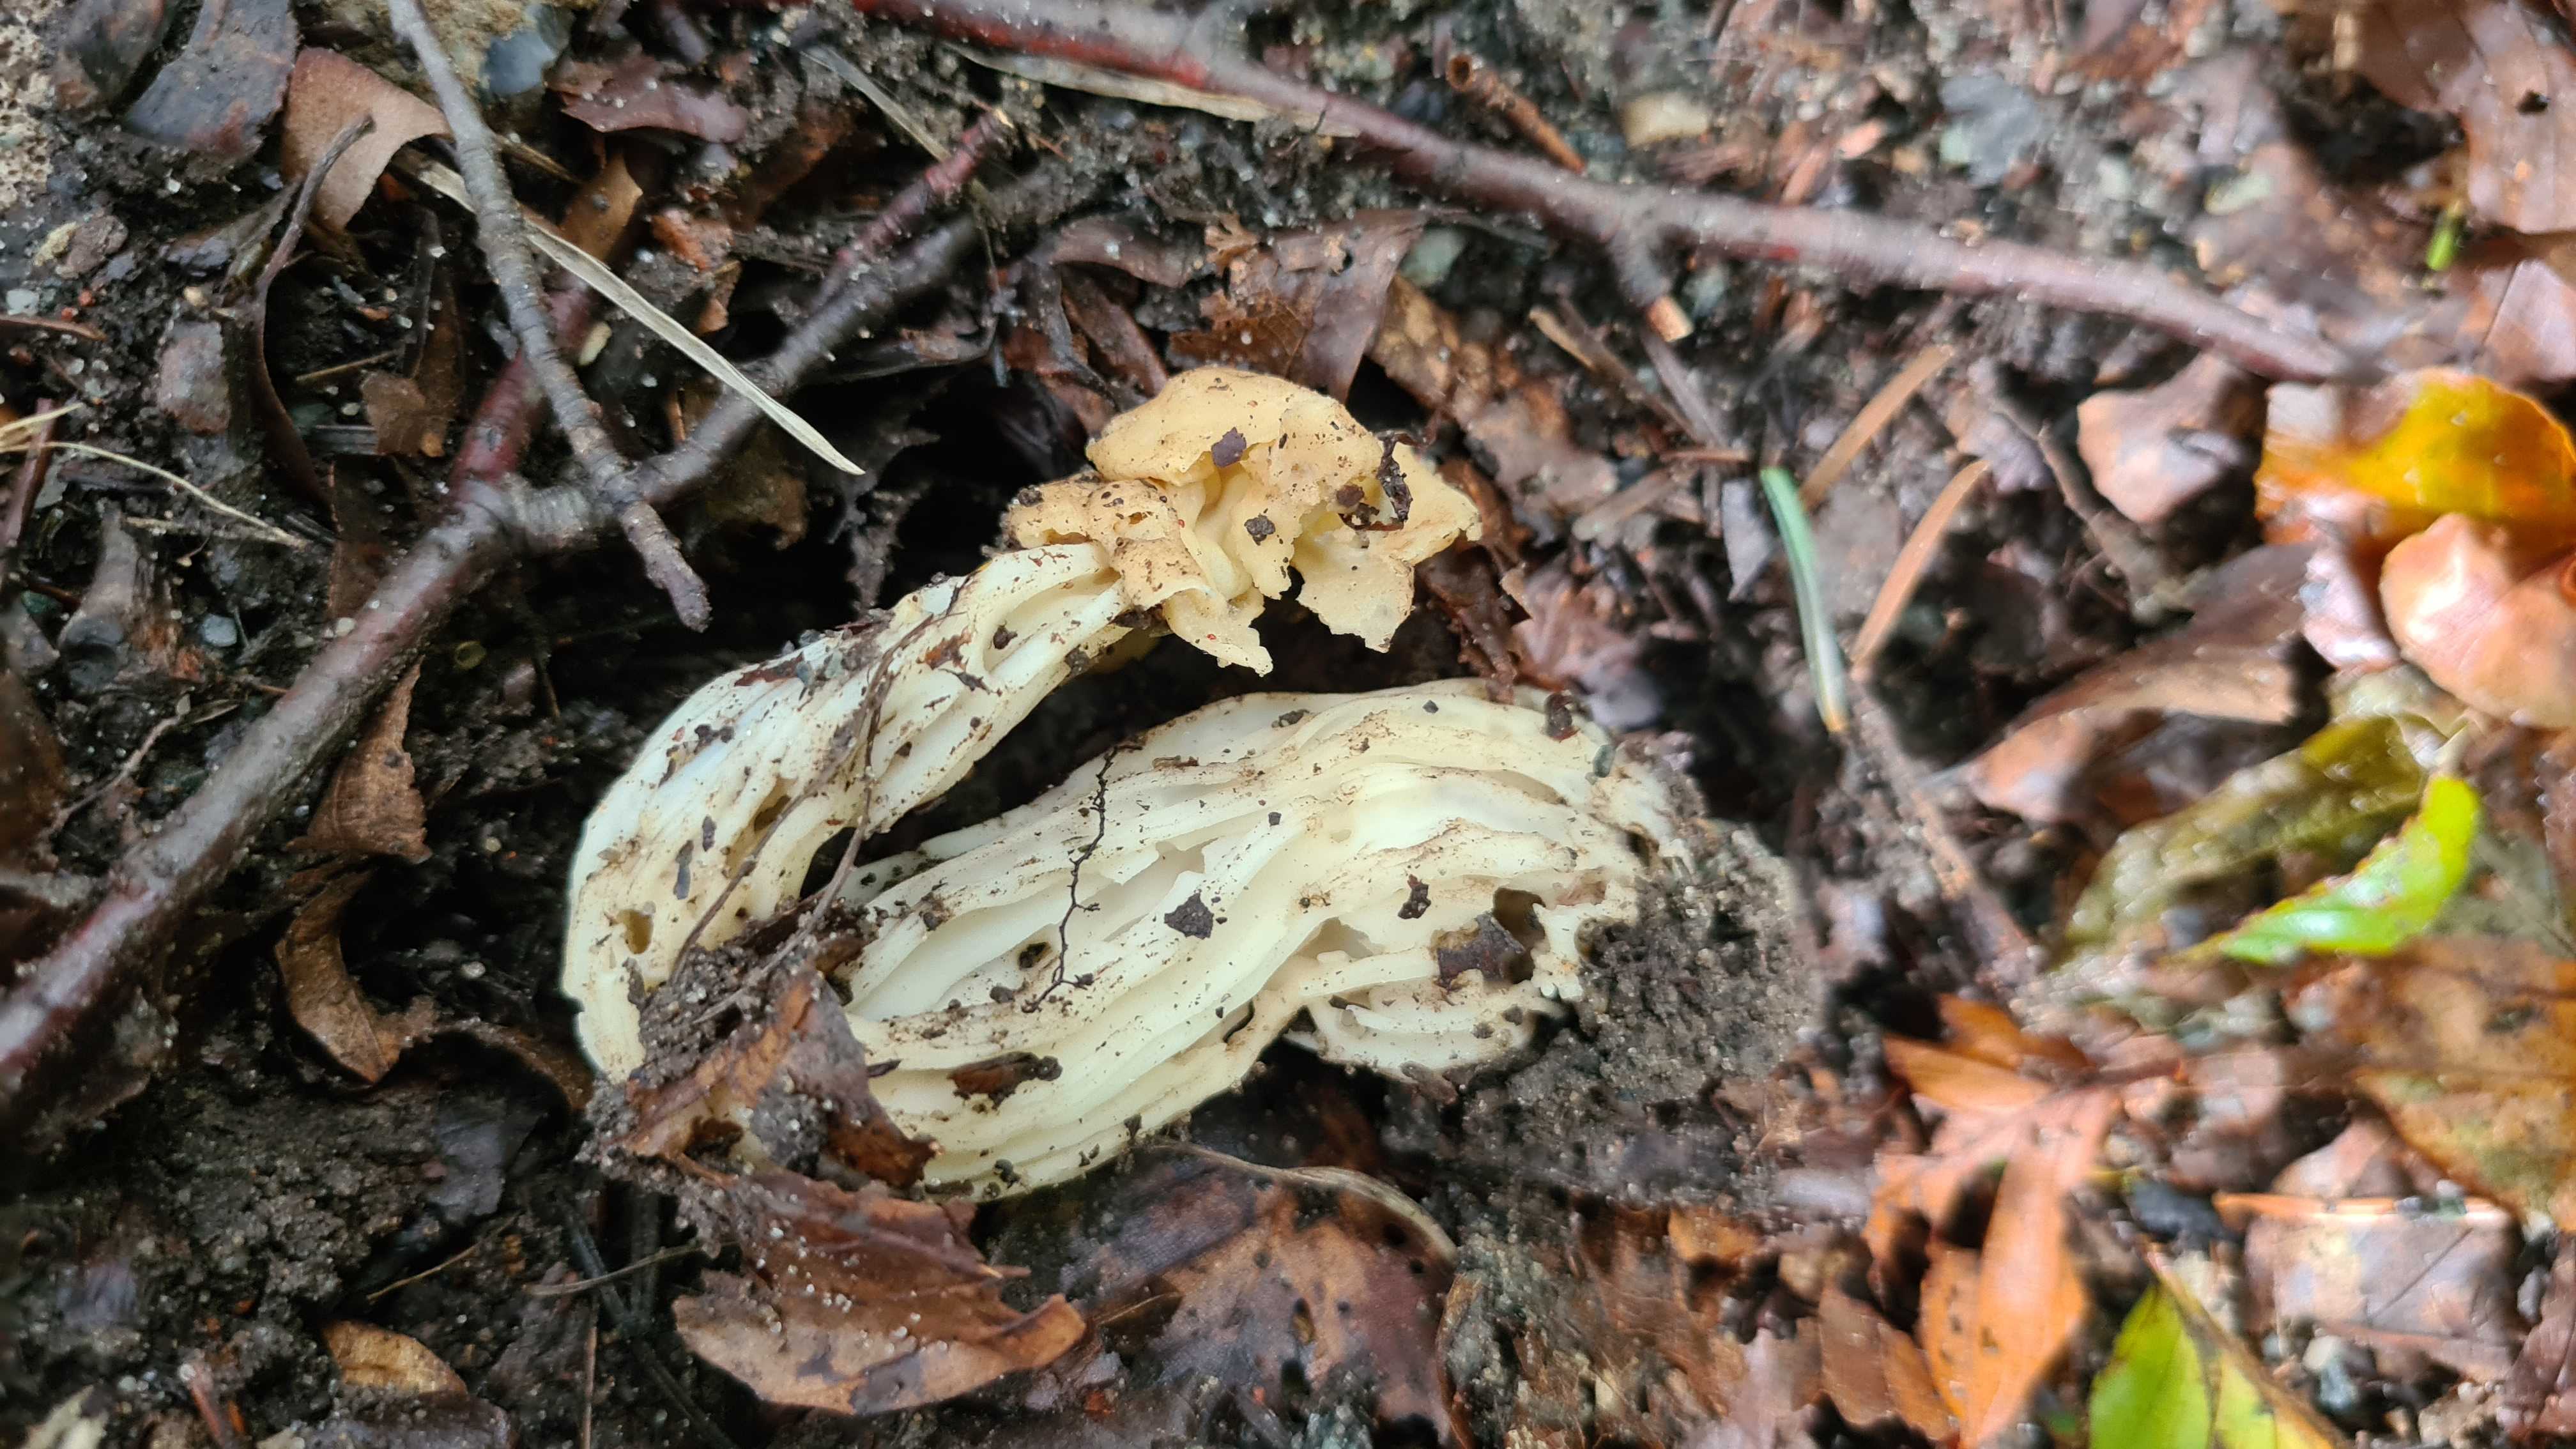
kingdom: Fungi
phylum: Ascomycota
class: Pezizomycetes
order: Pezizales
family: Helvellaceae
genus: Helvella
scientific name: Helvella crispa
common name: kruset foldhat
